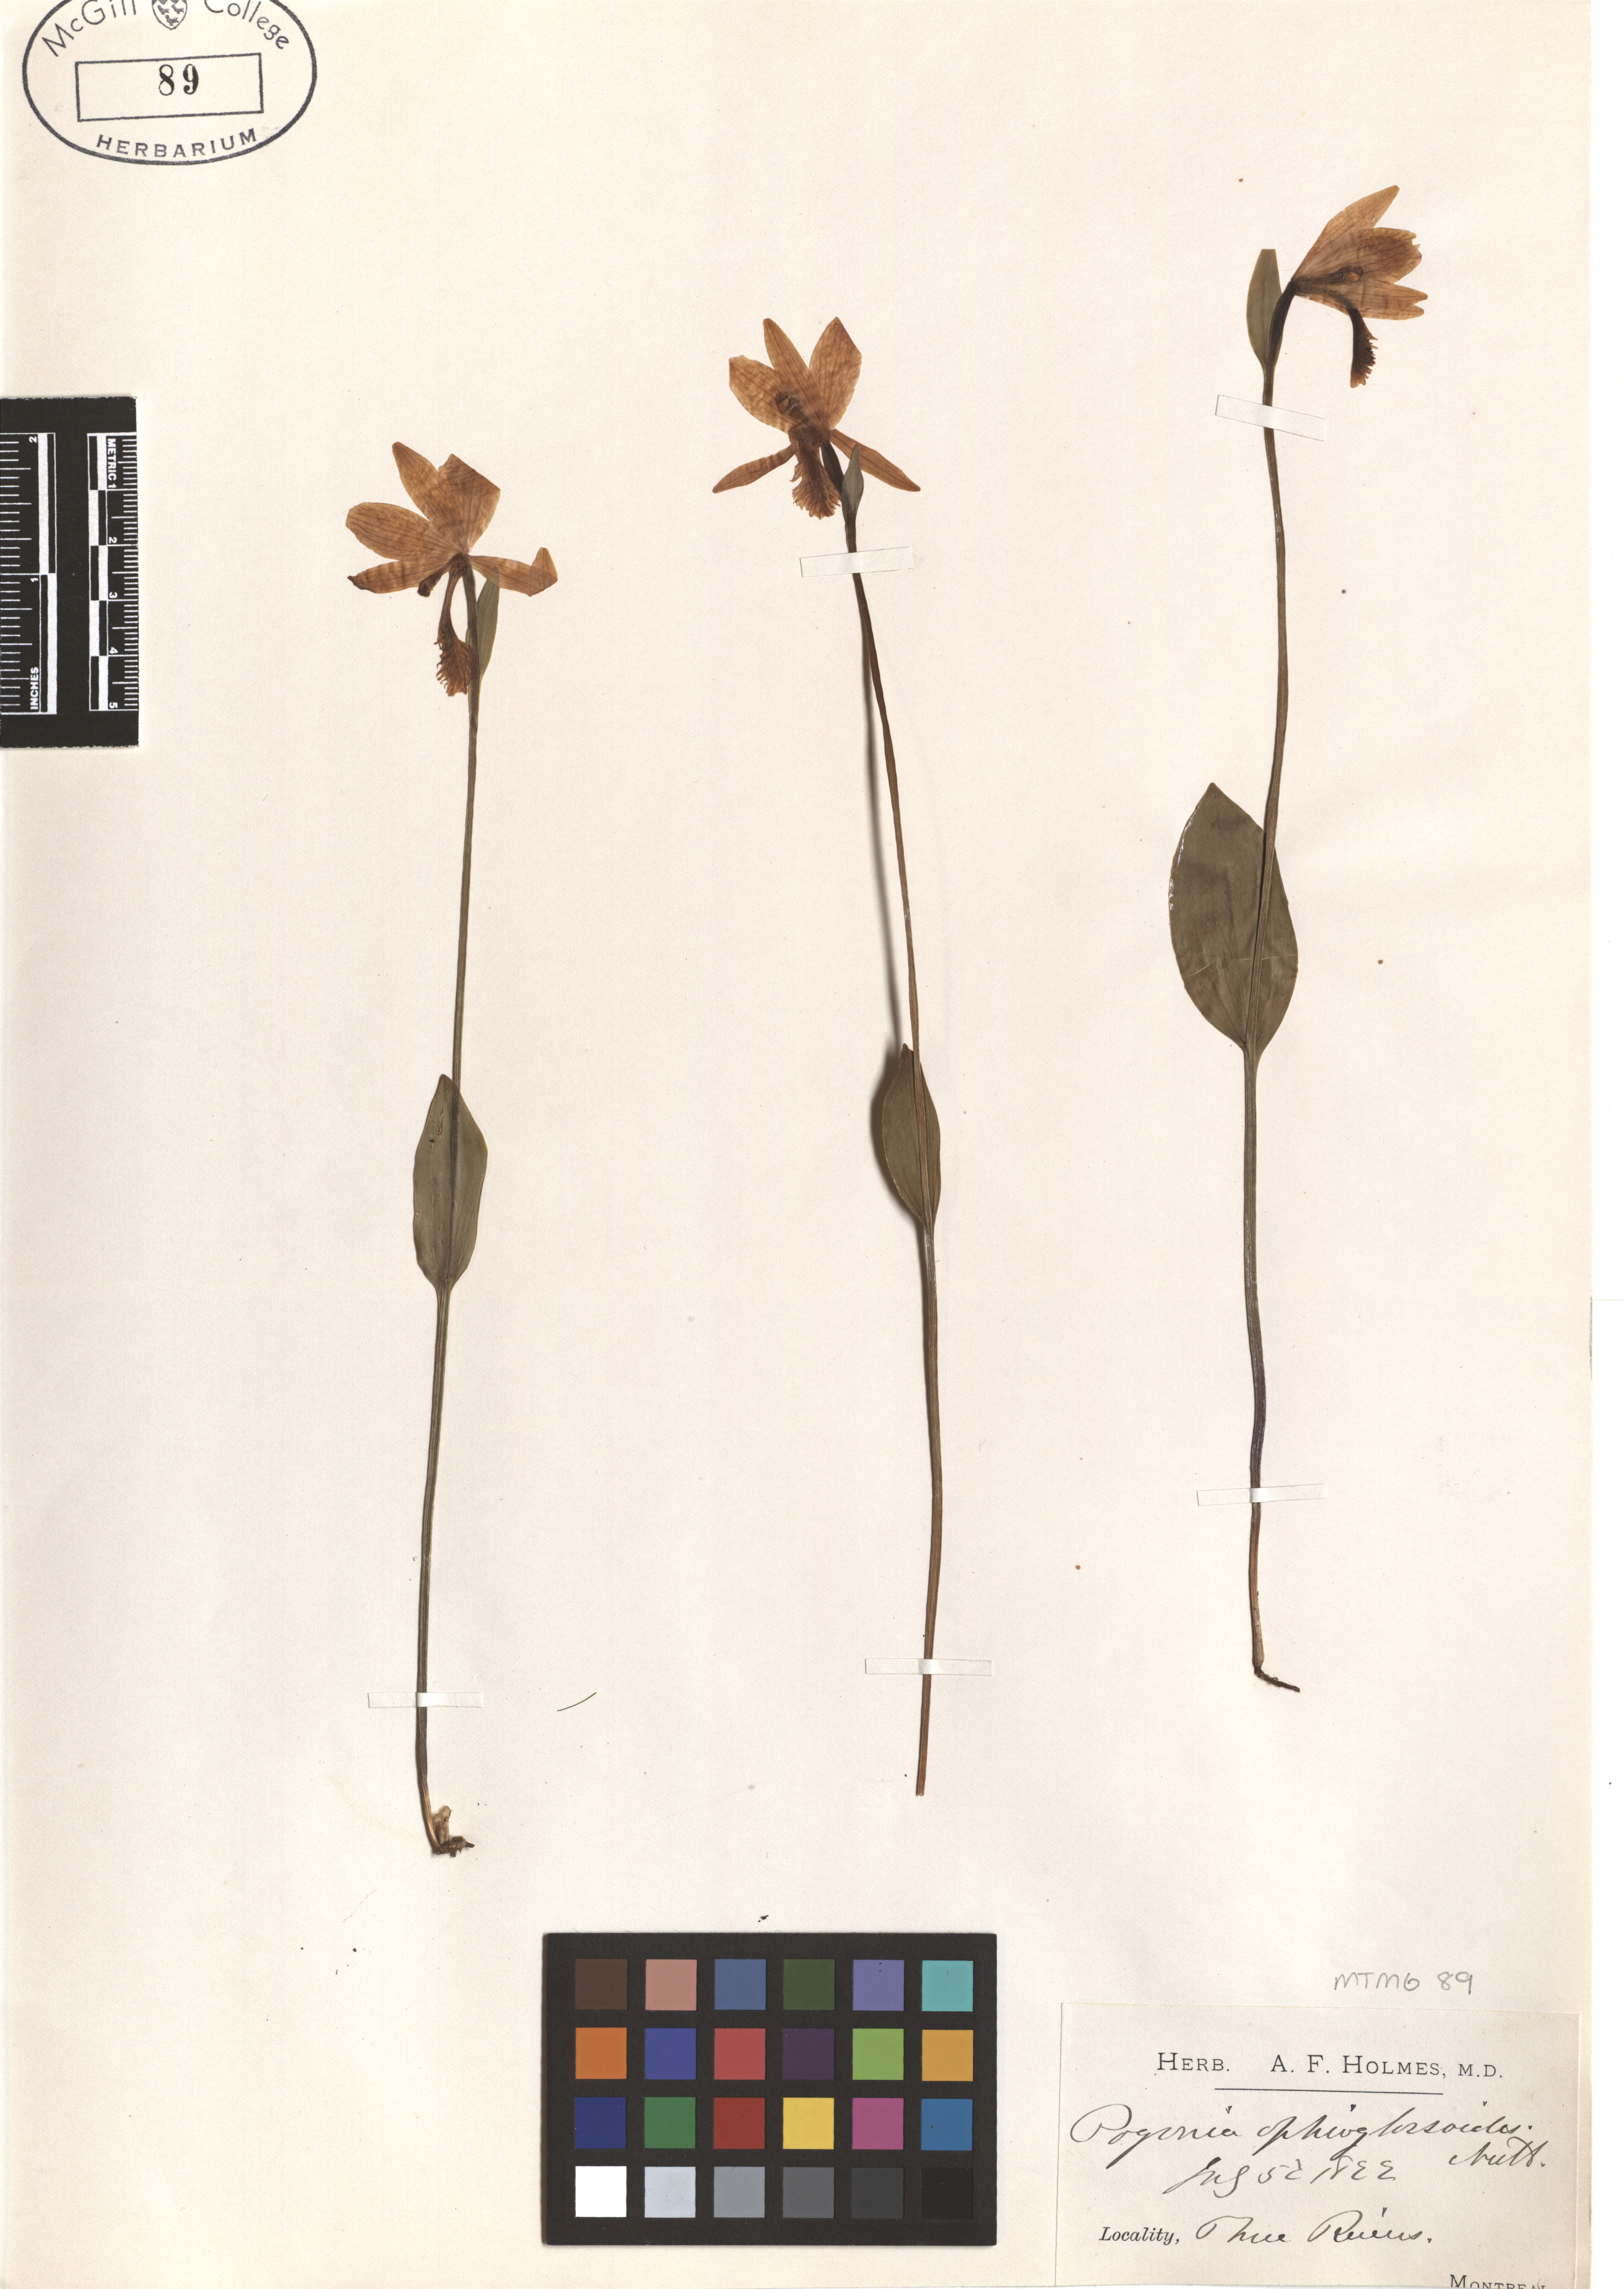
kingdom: Plantae
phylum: Tracheophyta
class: Liliopsida
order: Asparagales
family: Orchidaceae
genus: Pogonia
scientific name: Pogonia ophioglossoides
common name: Rose pogonia
